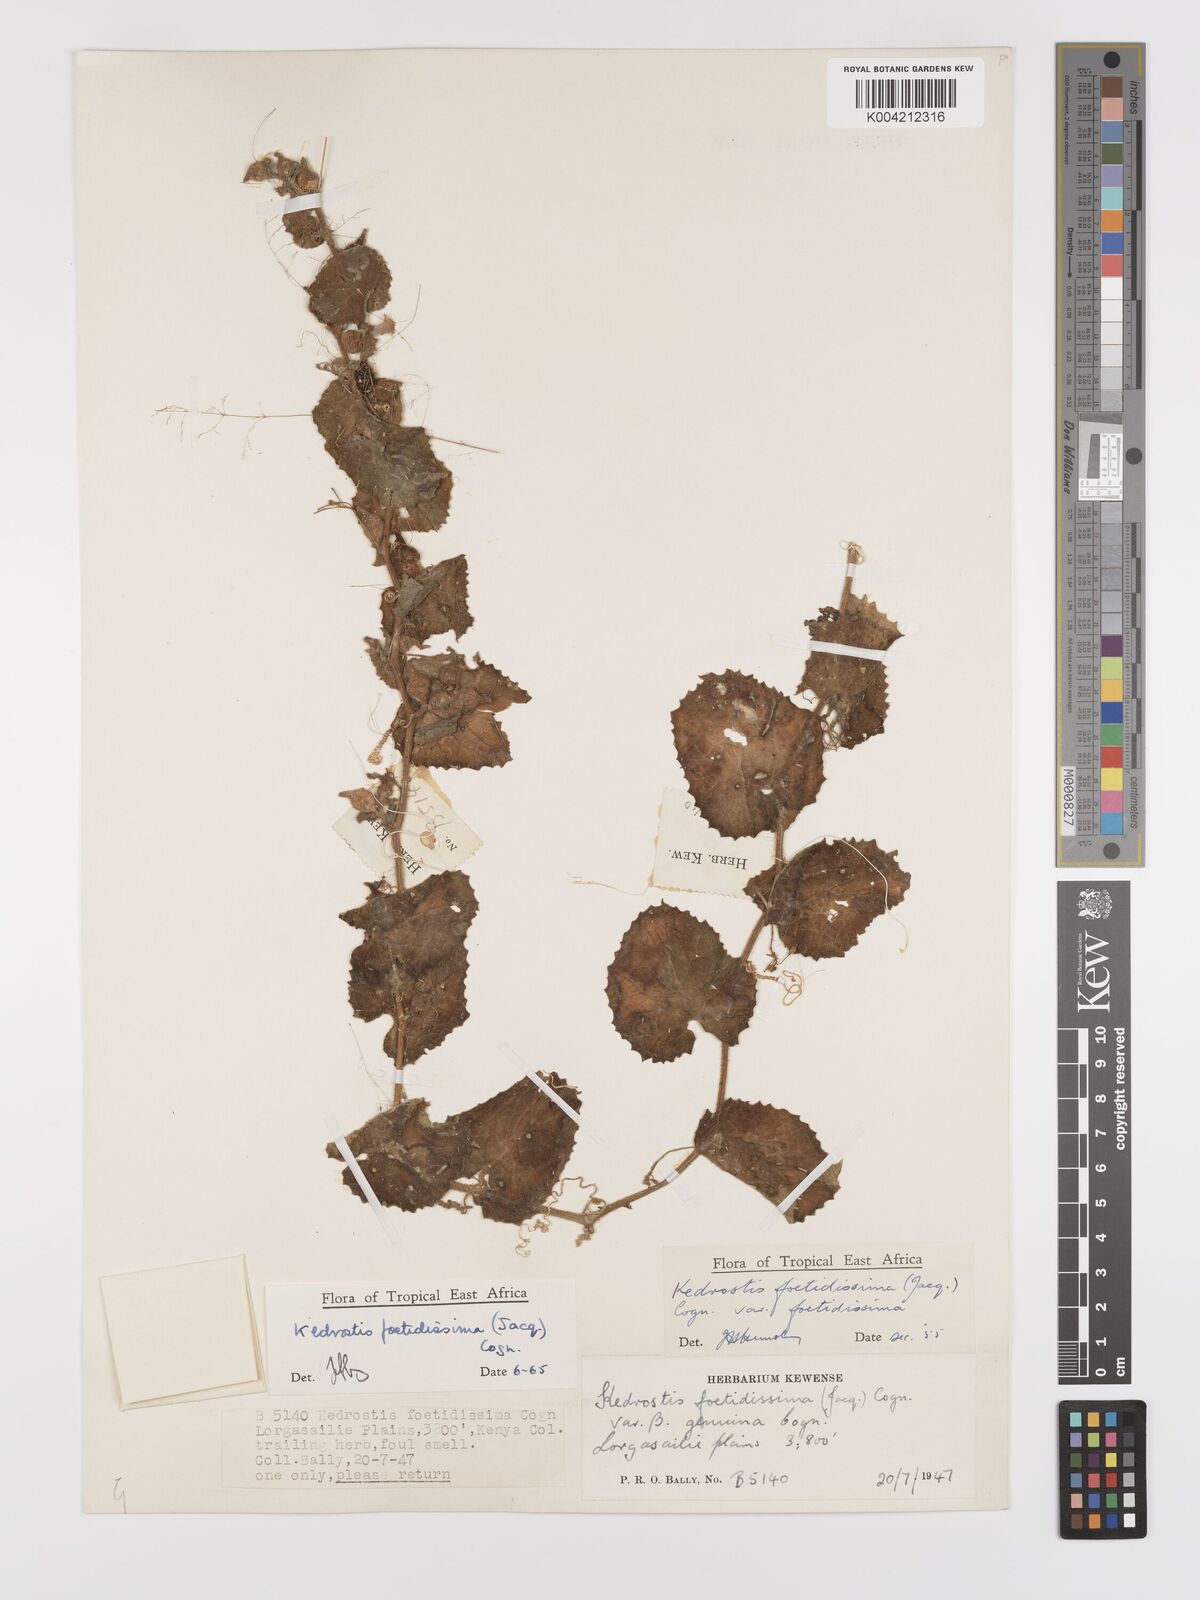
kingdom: Plantae
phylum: Tracheophyta
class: Magnoliopsida
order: Cucurbitales
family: Cucurbitaceae
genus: Kedrostis
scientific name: Kedrostis foetidissima
